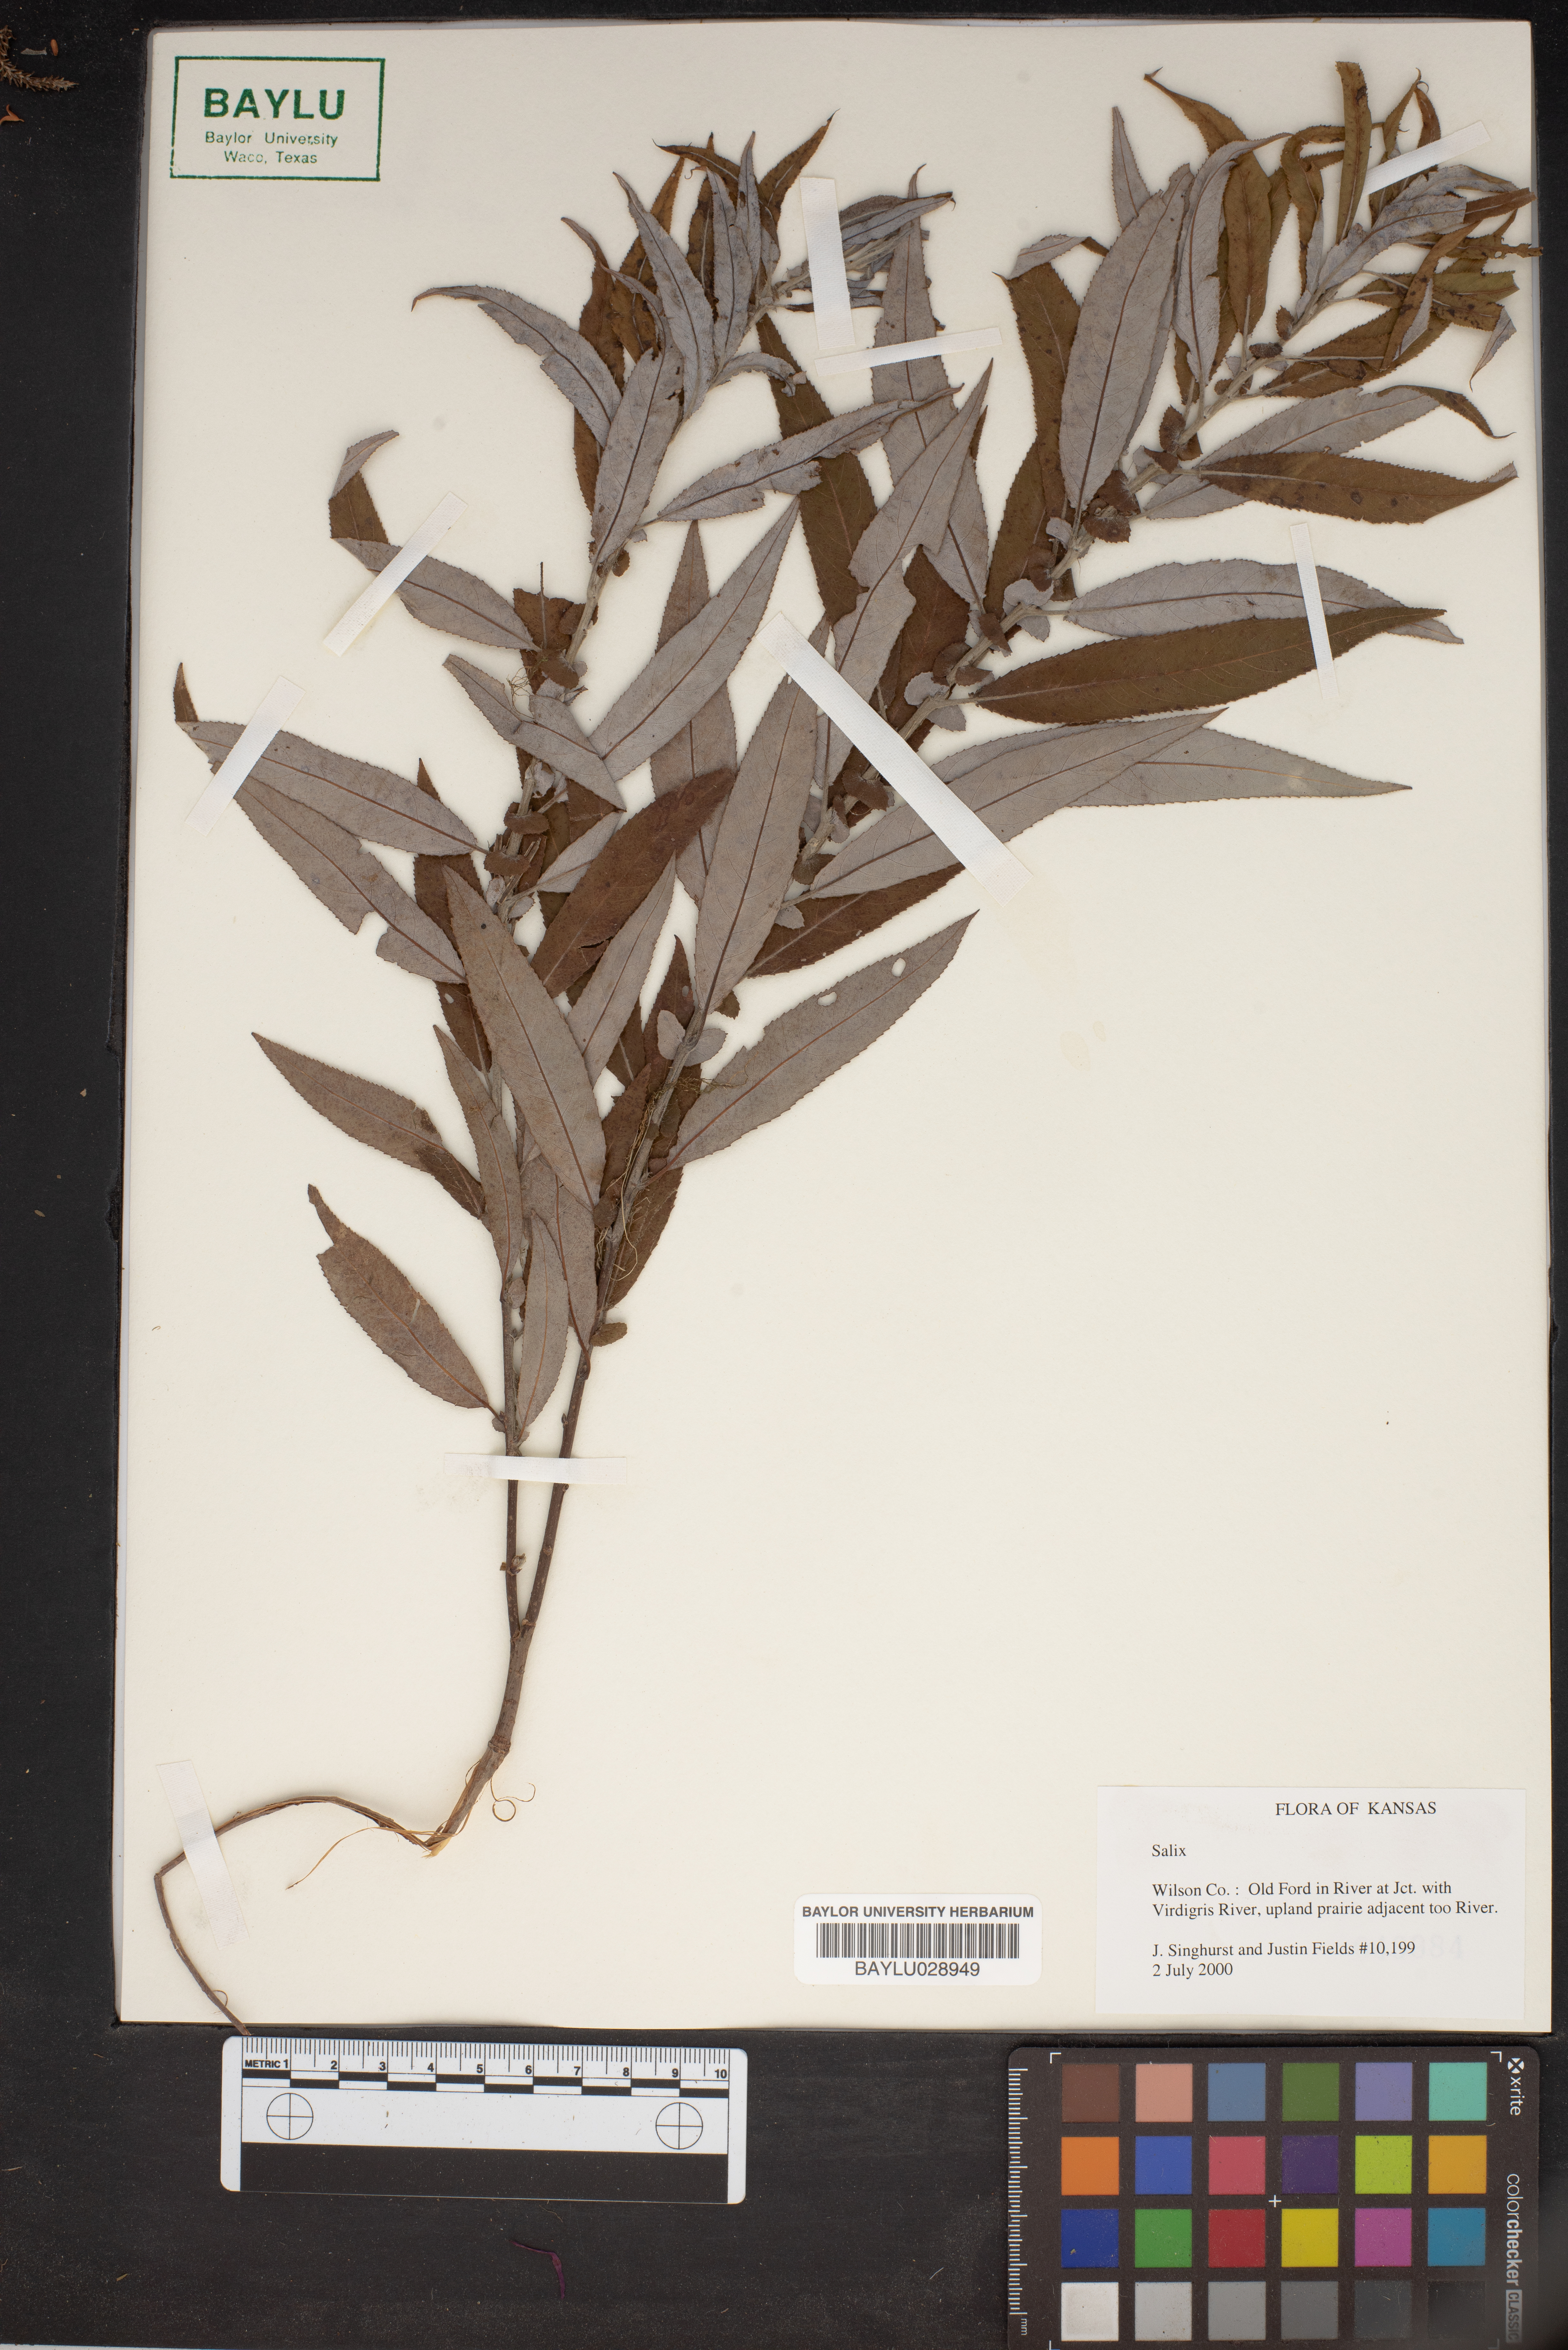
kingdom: Plantae
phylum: Tracheophyta
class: Magnoliopsida
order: Malpighiales
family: Salicaceae
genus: Salix
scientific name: Salix
